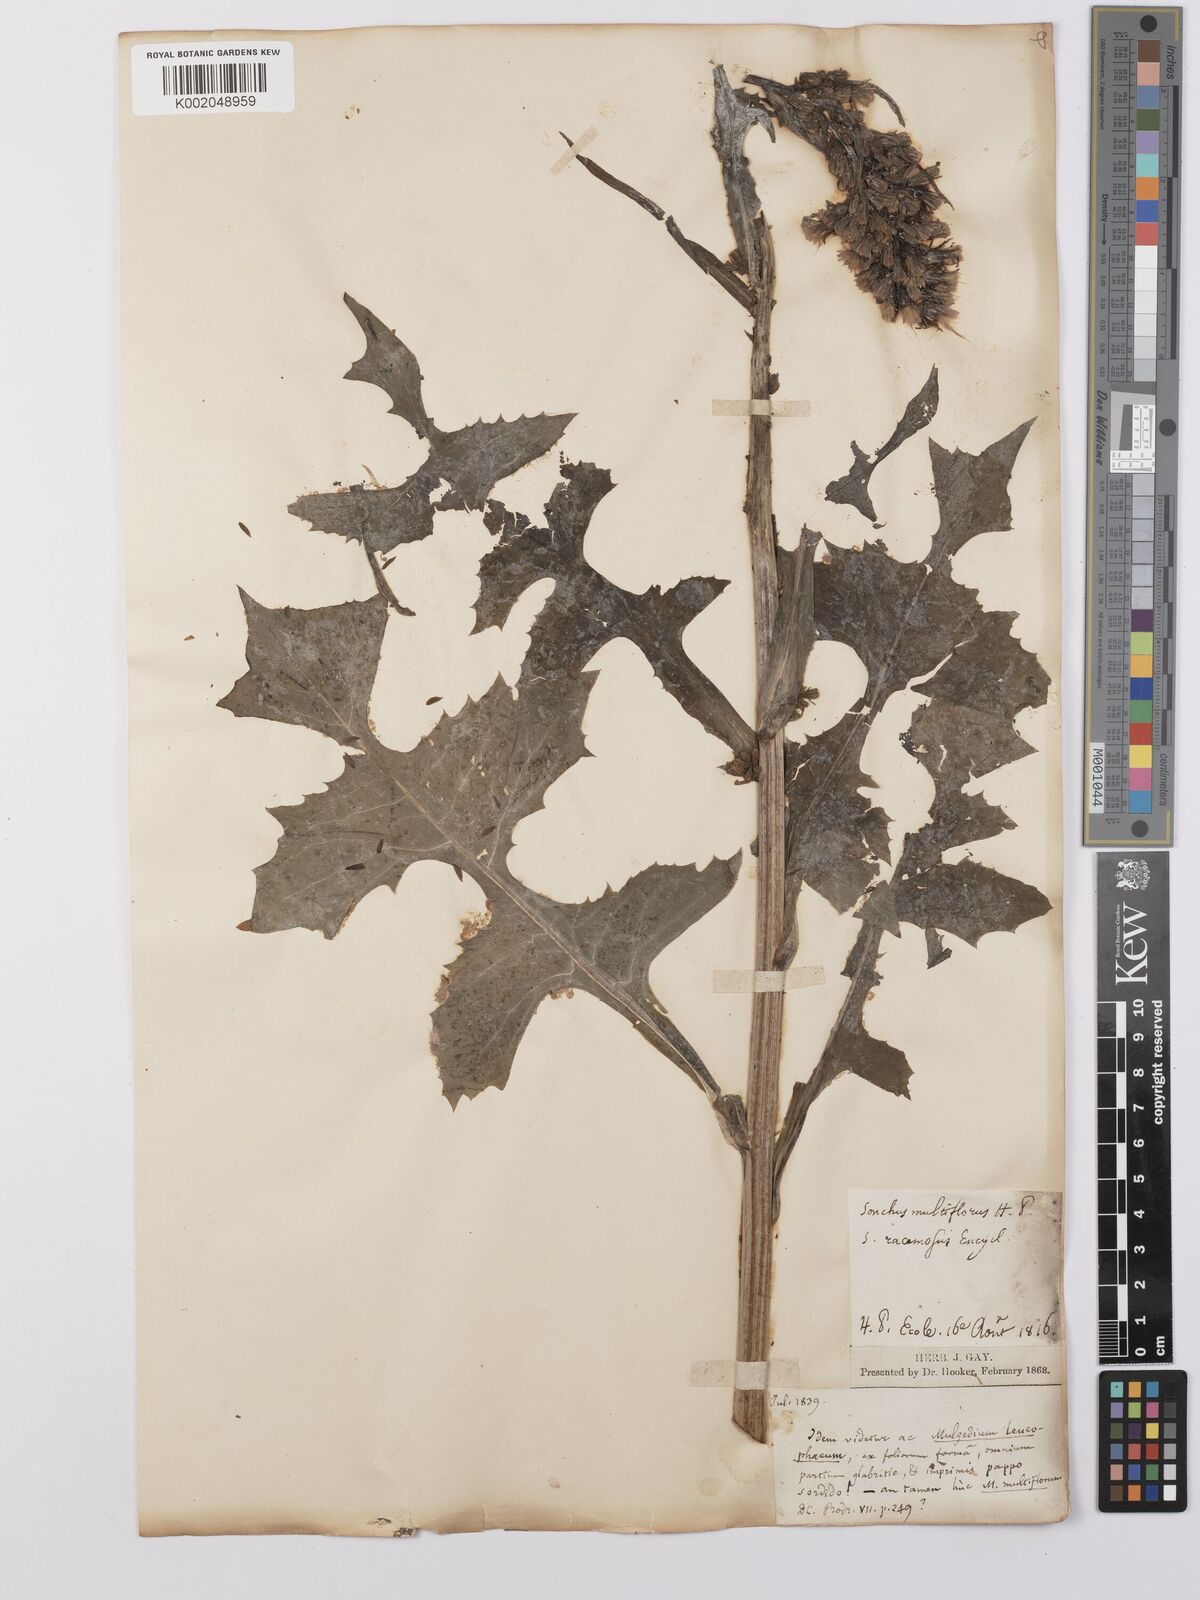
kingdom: Plantae
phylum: Tracheophyta
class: Magnoliopsida
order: Asterales
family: Asteraceae
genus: Lactuca
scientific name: Lactuca
